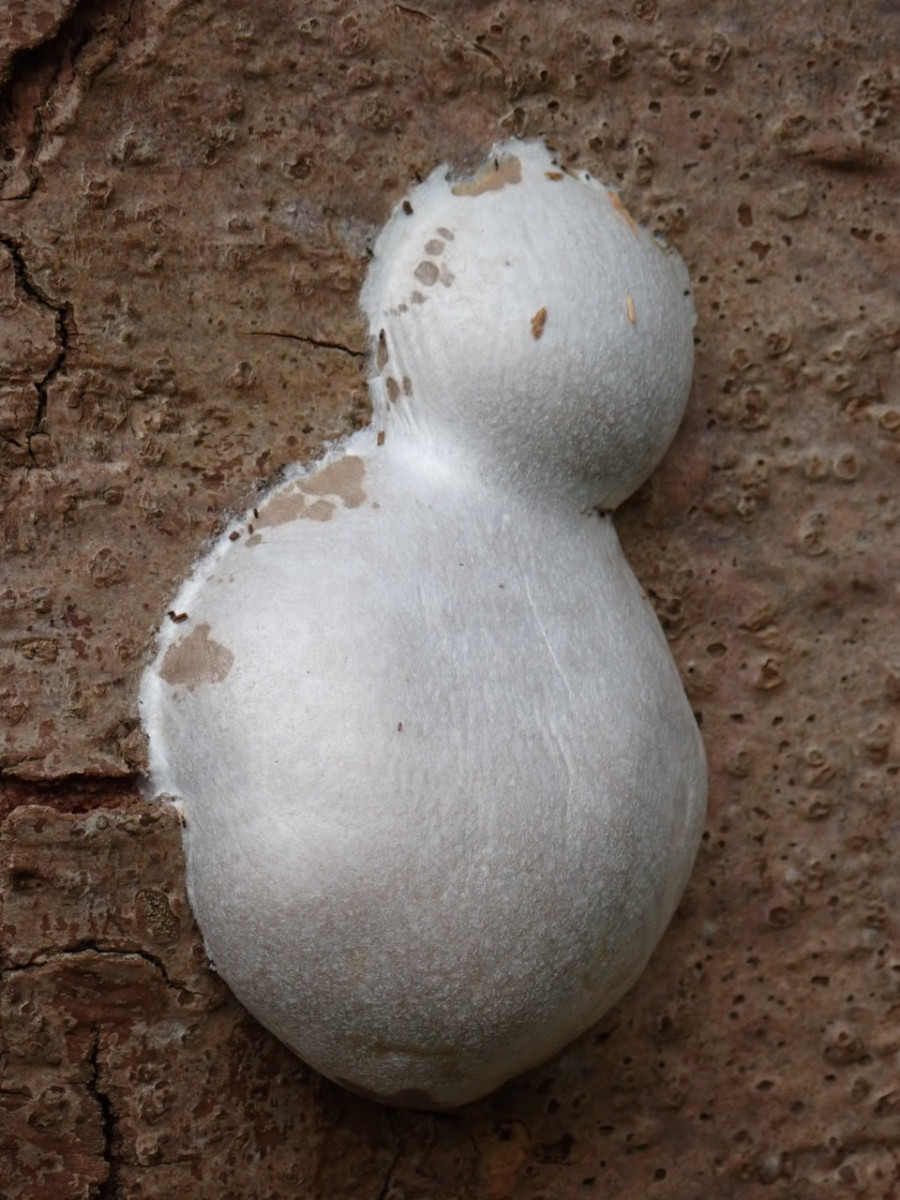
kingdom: Protozoa
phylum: Mycetozoa
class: Myxomycetes
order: Cribrariales
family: Tubiferaceae
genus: Reticularia
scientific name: Reticularia lycoperdon
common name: skinnende støvpude
